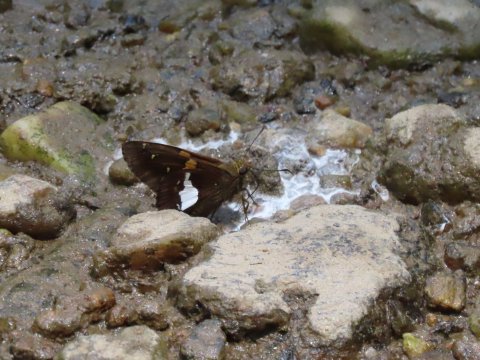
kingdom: Animalia
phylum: Arthropoda
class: Insecta
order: Lepidoptera
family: Hesperiidae
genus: Epargyreus
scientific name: Epargyreus clarus
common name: Silver-spotted Skipper
